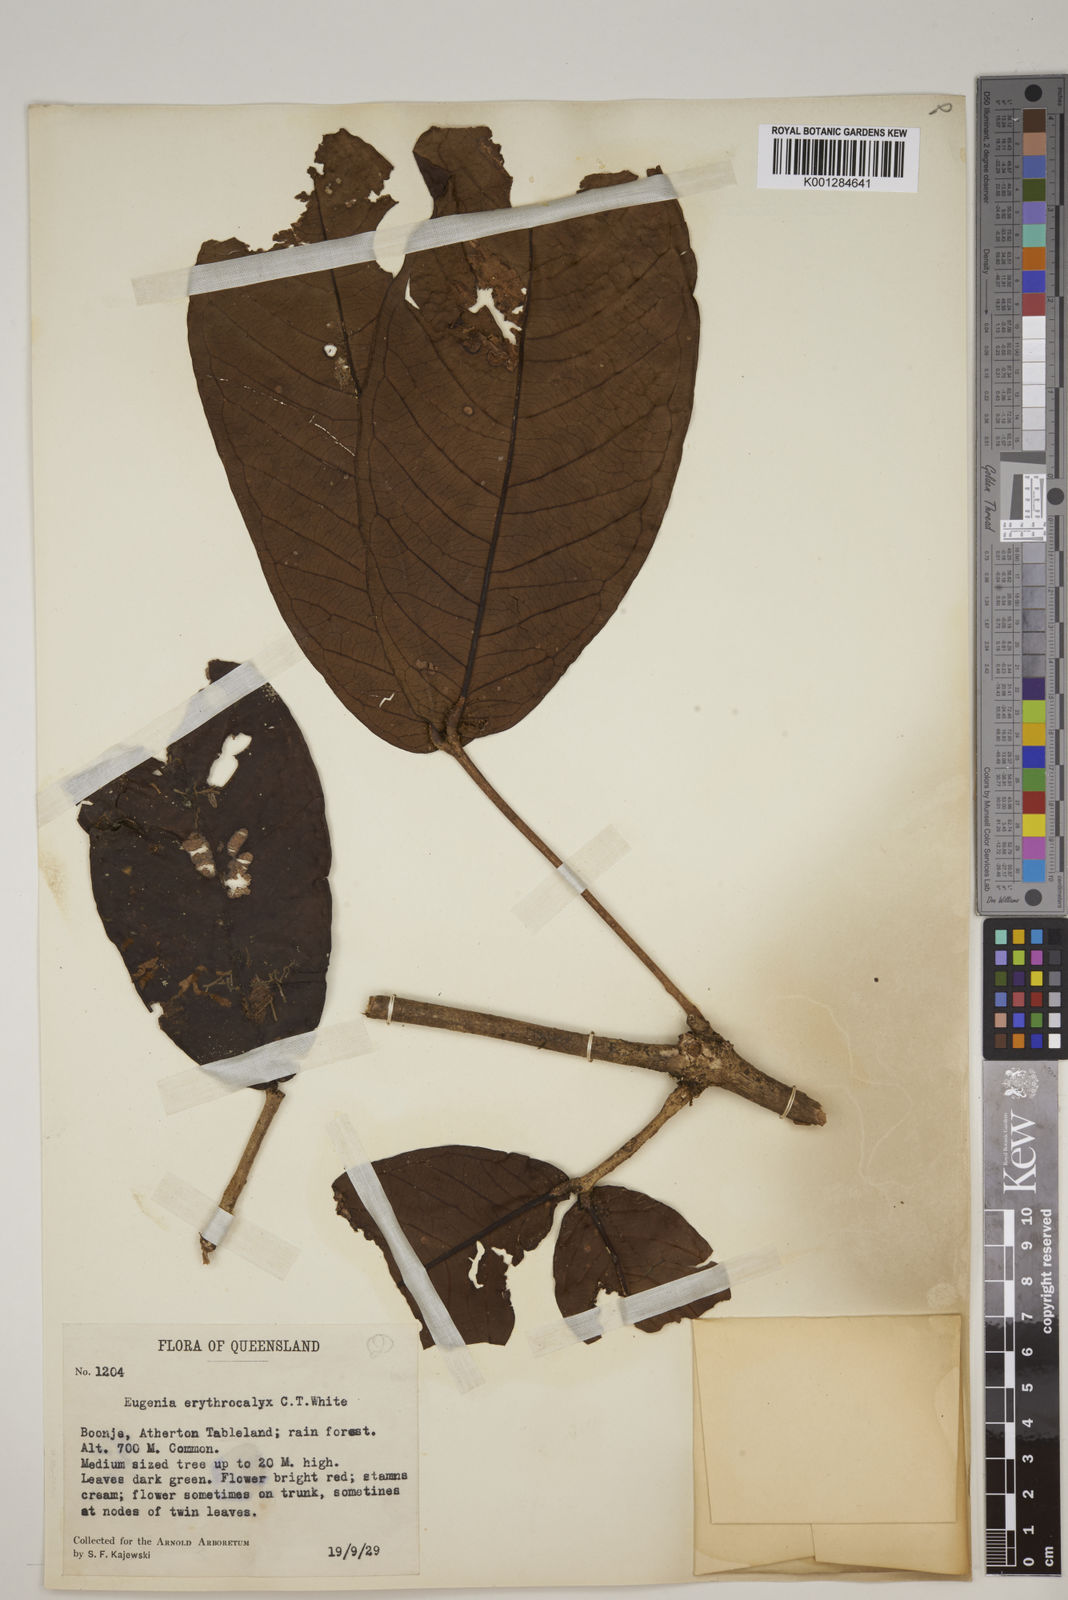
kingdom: Plantae
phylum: Tracheophyta
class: Magnoliopsida
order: Myrtales
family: Myrtaceae
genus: Syzygium
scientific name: Syzygium erythrocalyx
